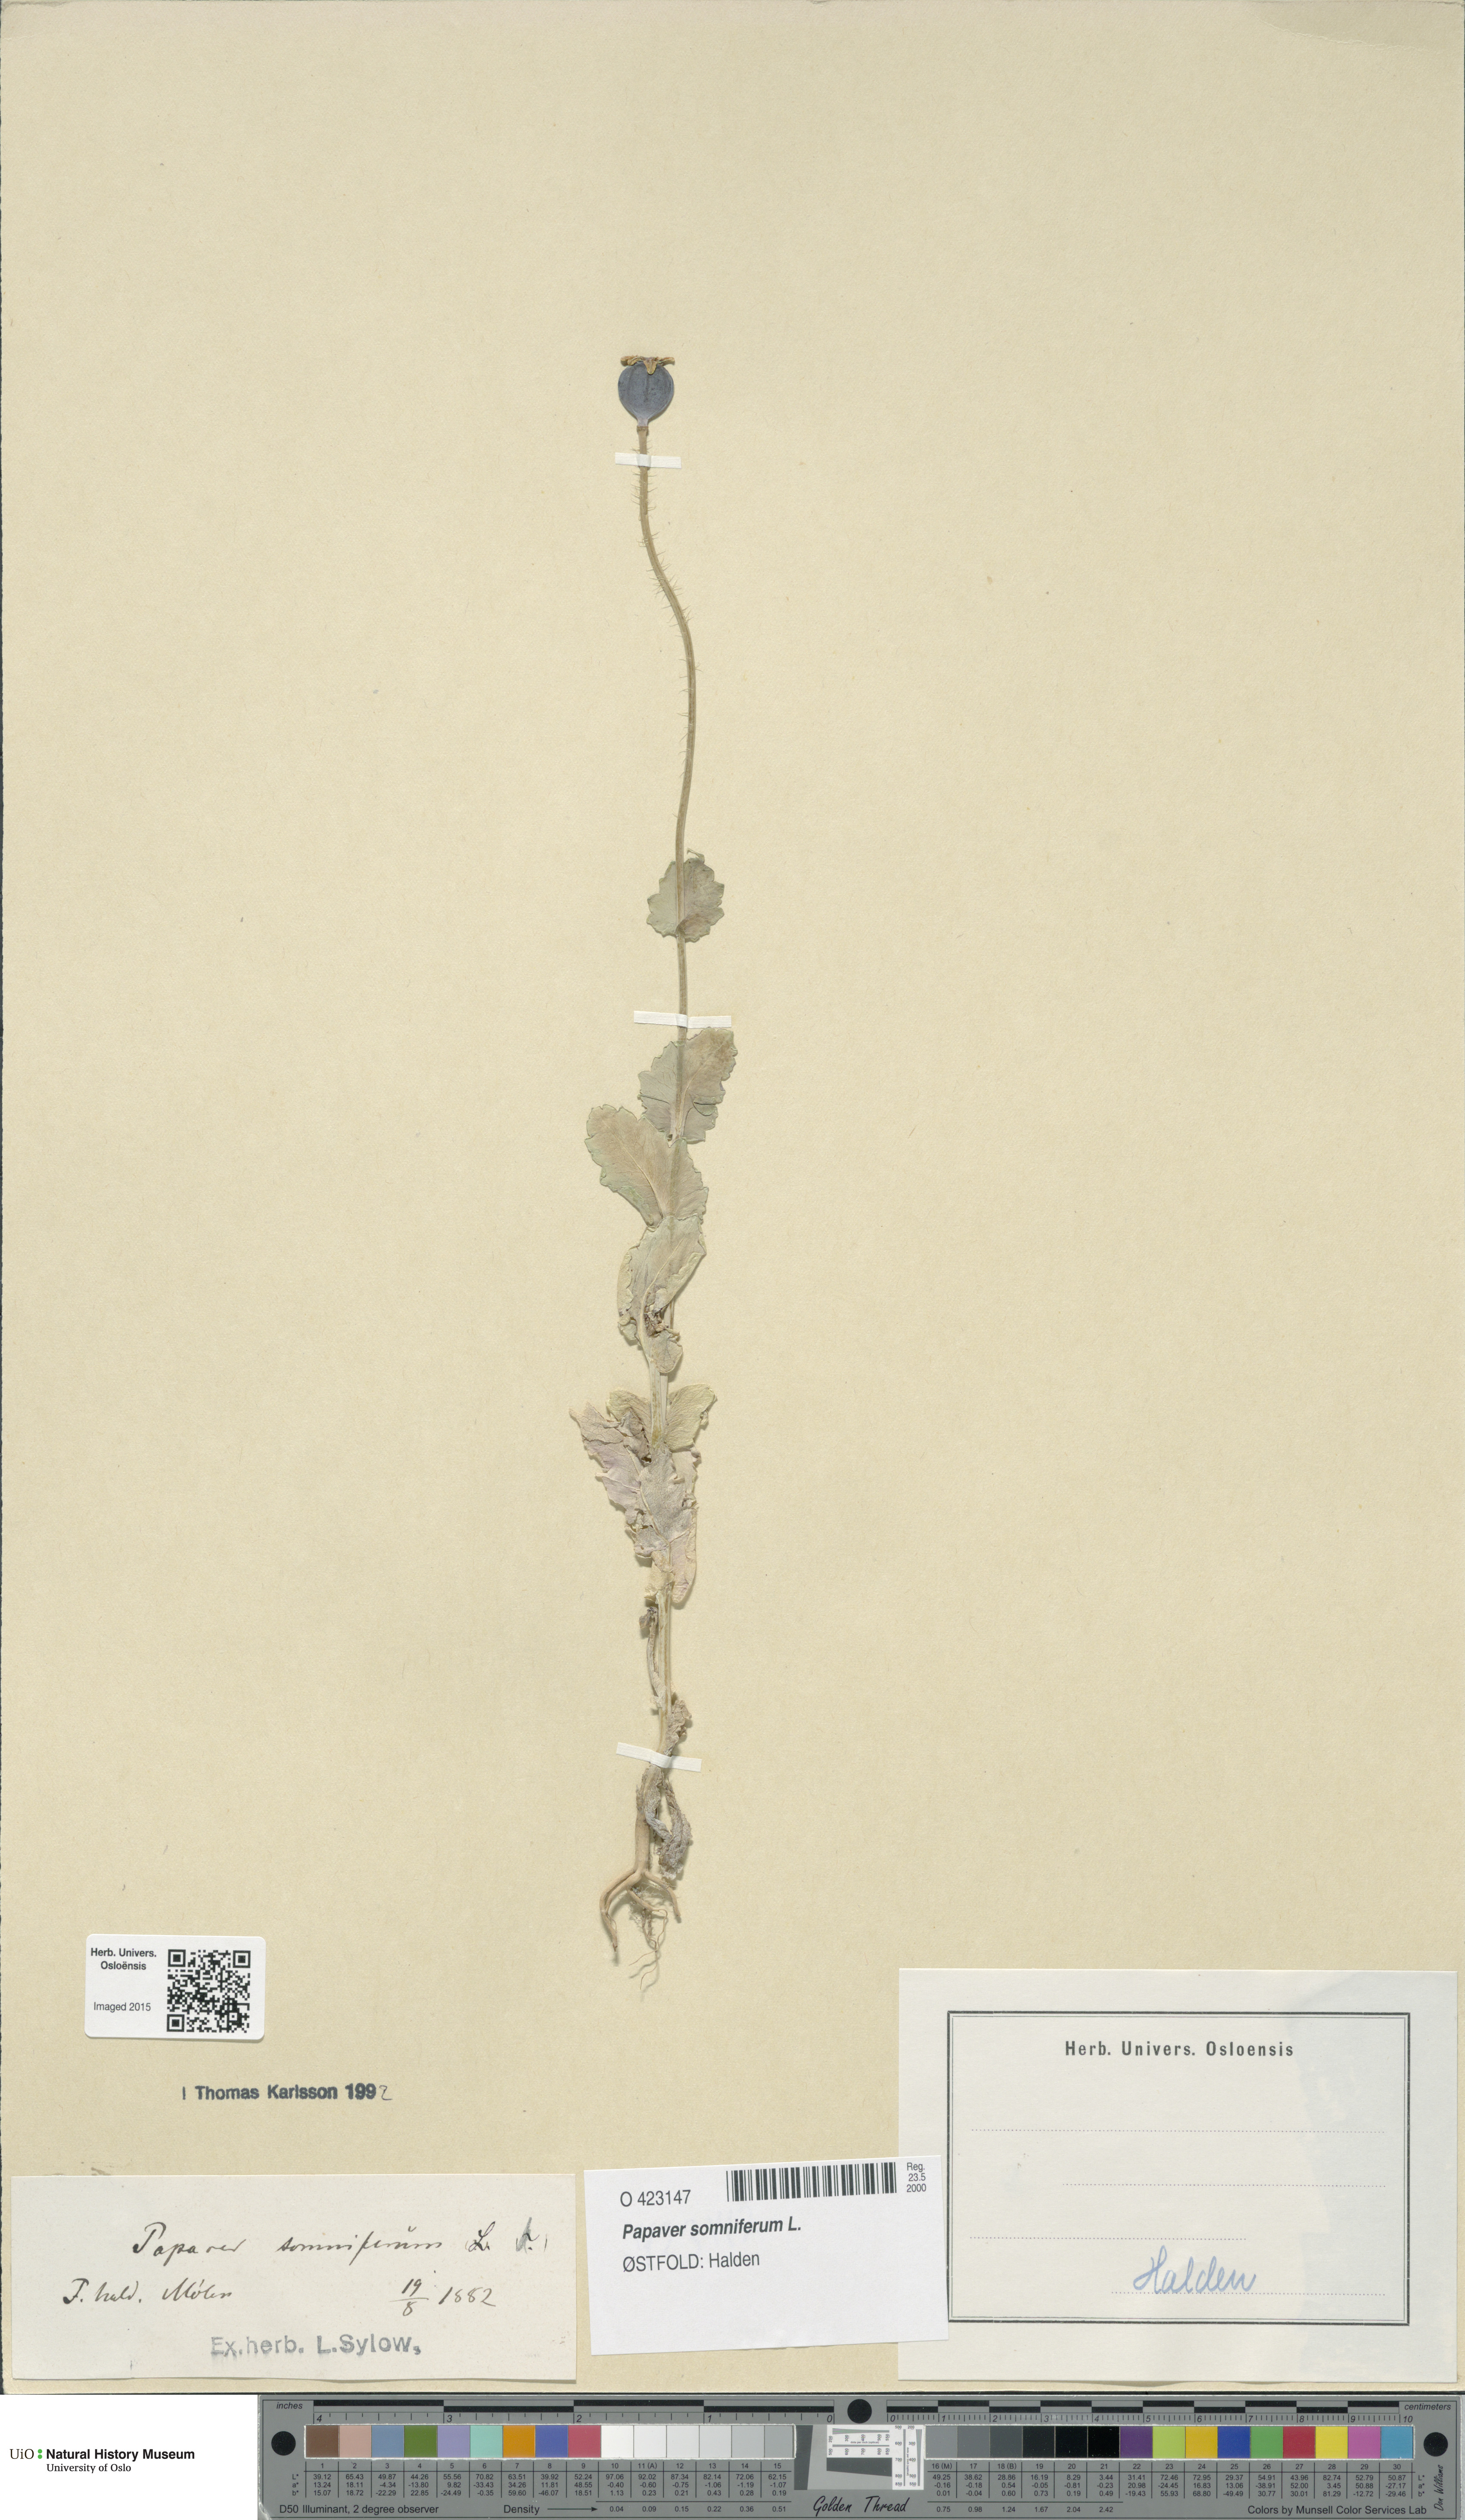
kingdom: Plantae
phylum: Tracheophyta
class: Magnoliopsida
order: Ranunculales
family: Papaveraceae
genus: Papaver
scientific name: Papaver somniferum
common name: Opium poppy
